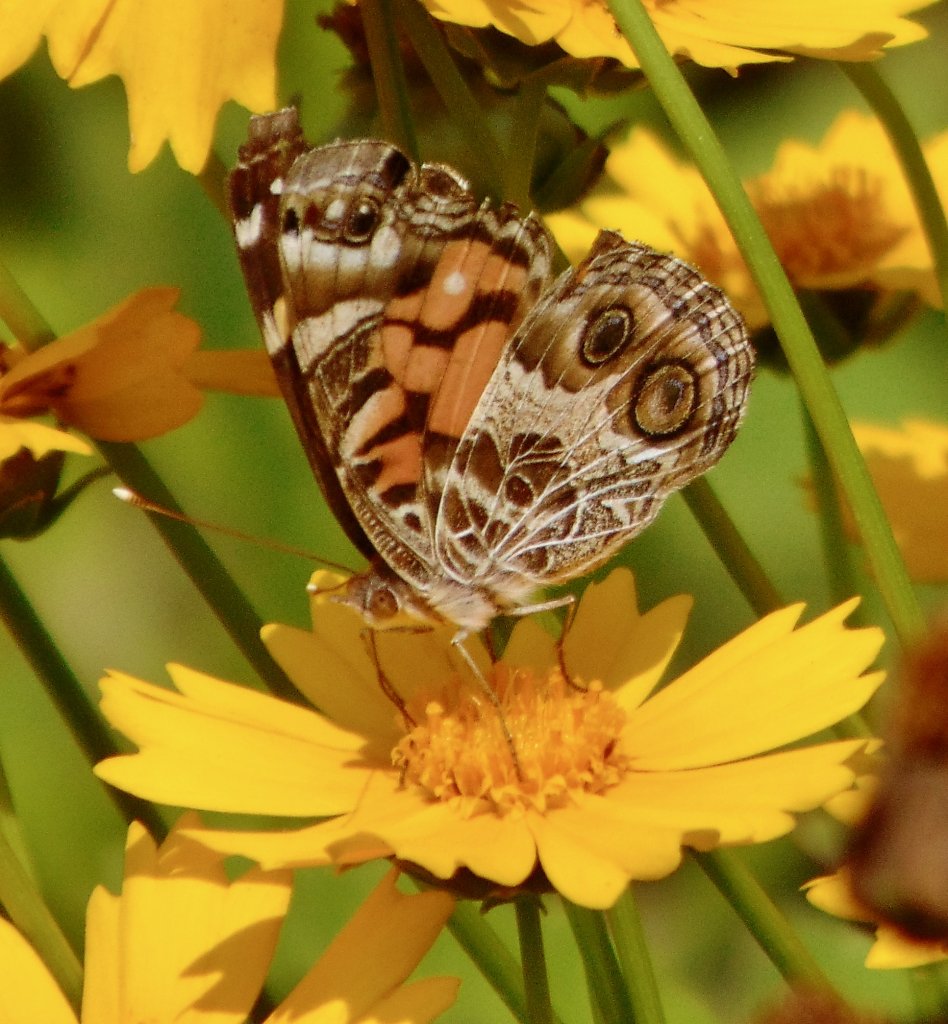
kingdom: Animalia
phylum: Arthropoda
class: Insecta
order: Lepidoptera
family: Nymphalidae
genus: Vanessa
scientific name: Vanessa virginiensis
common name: American Lady
